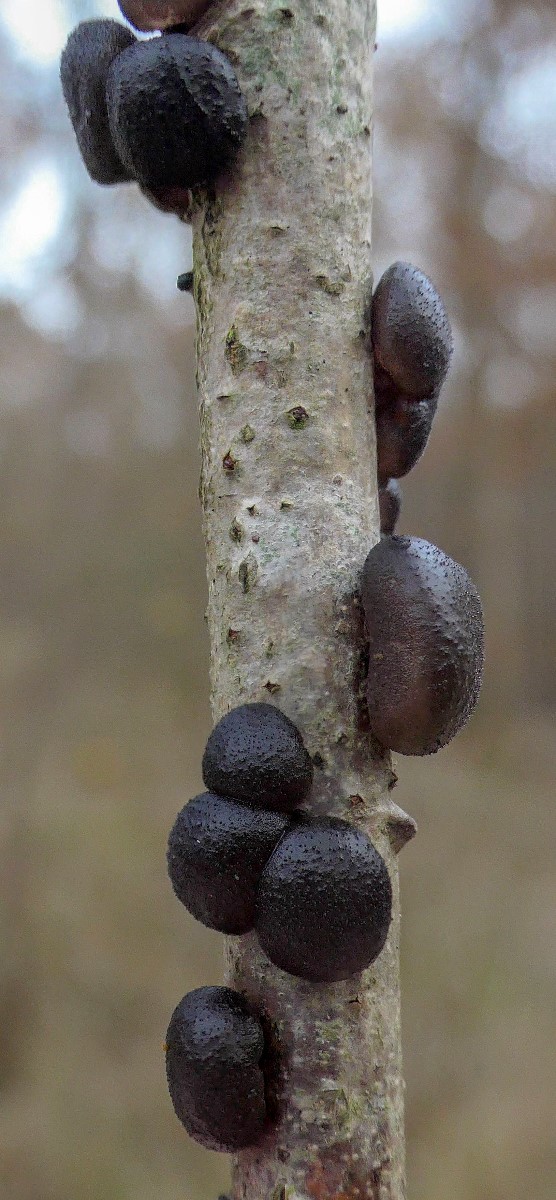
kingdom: Fungi
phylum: Basidiomycota
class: Agaricomycetes
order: Auriculariales
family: Auriculariaceae
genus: Exidia
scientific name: Exidia glandulosa
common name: ege-bævretop
